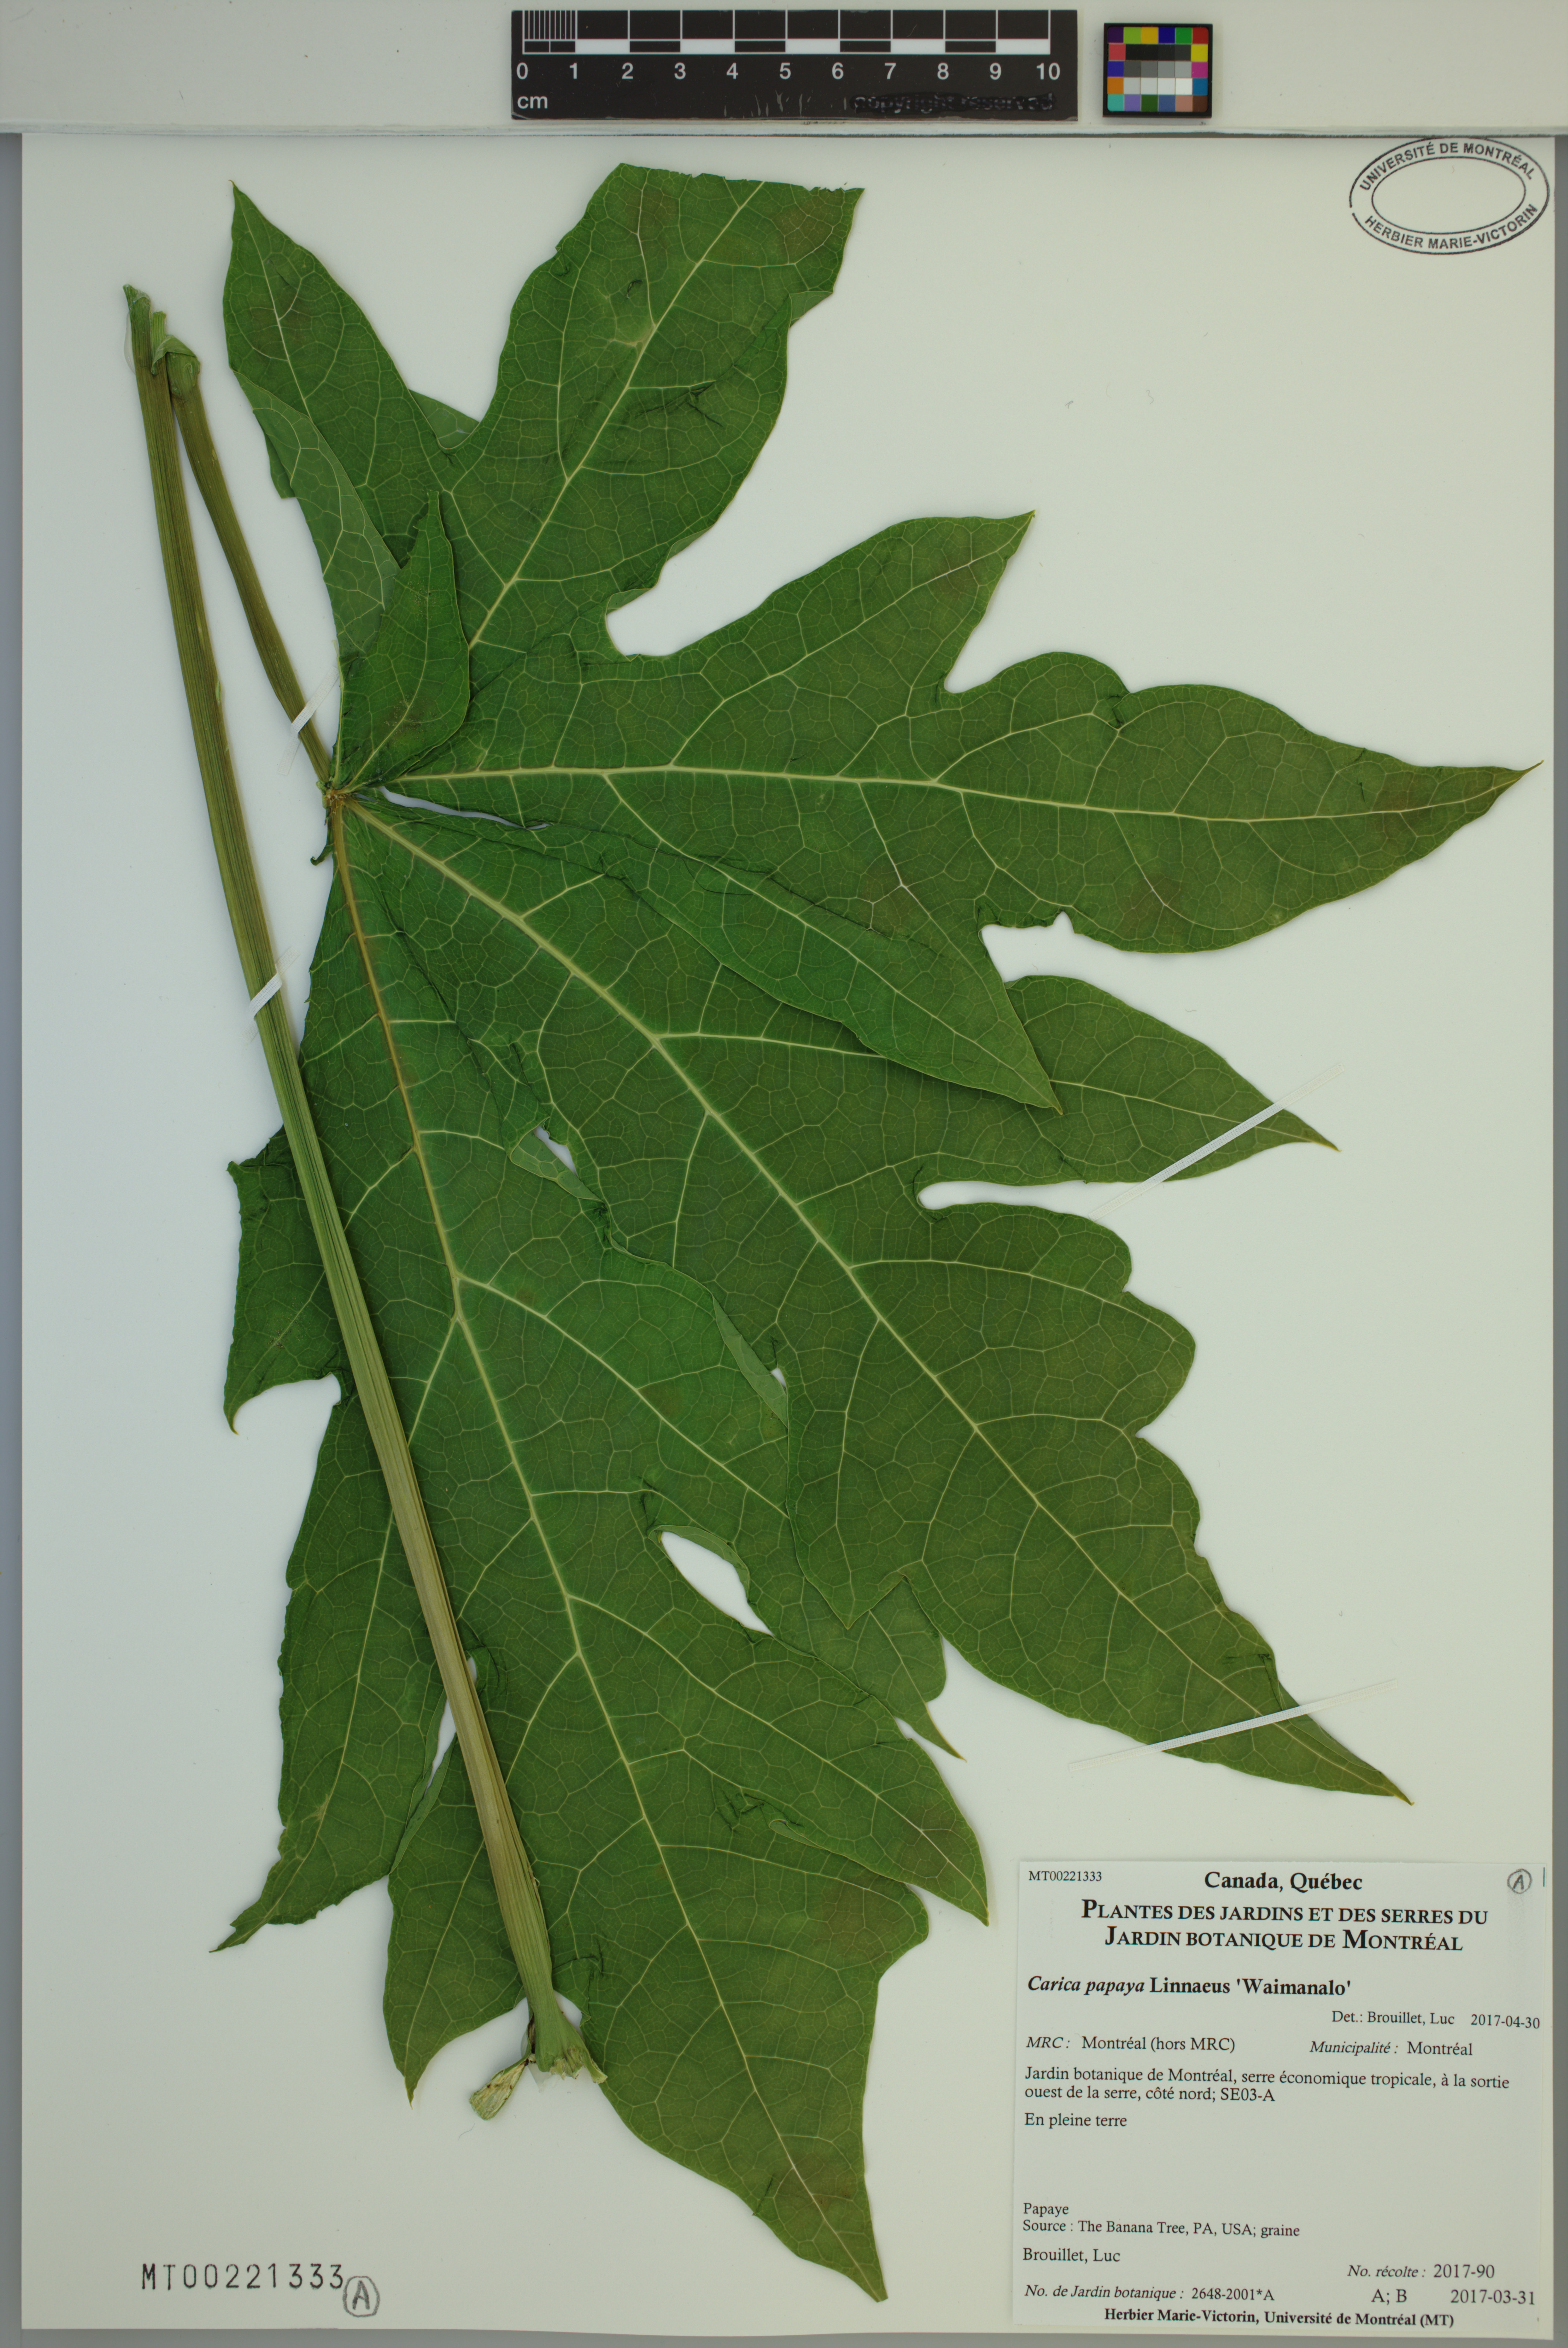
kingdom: Plantae
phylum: Tracheophyta
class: Magnoliopsida
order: Brassicales
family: Caricaceae
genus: Carica
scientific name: Carica papaya
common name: Papaya
